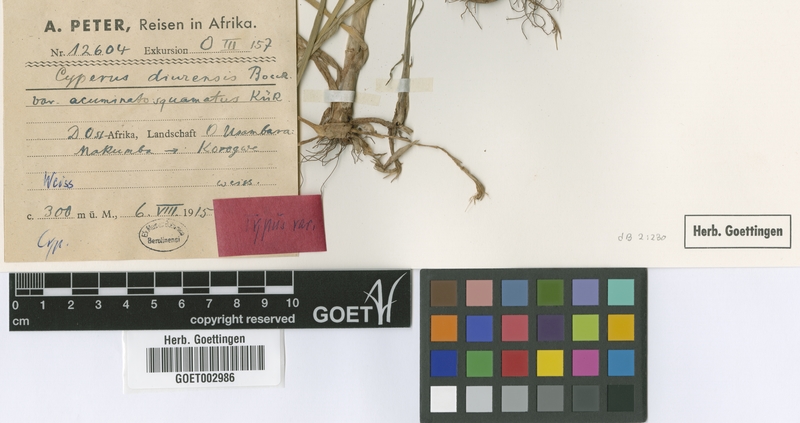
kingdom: Plantae
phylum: Tracheophyta
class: Liliopsida
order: Poales
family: Cyperaceae
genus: Cyperus
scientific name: Cyperus diurensis
